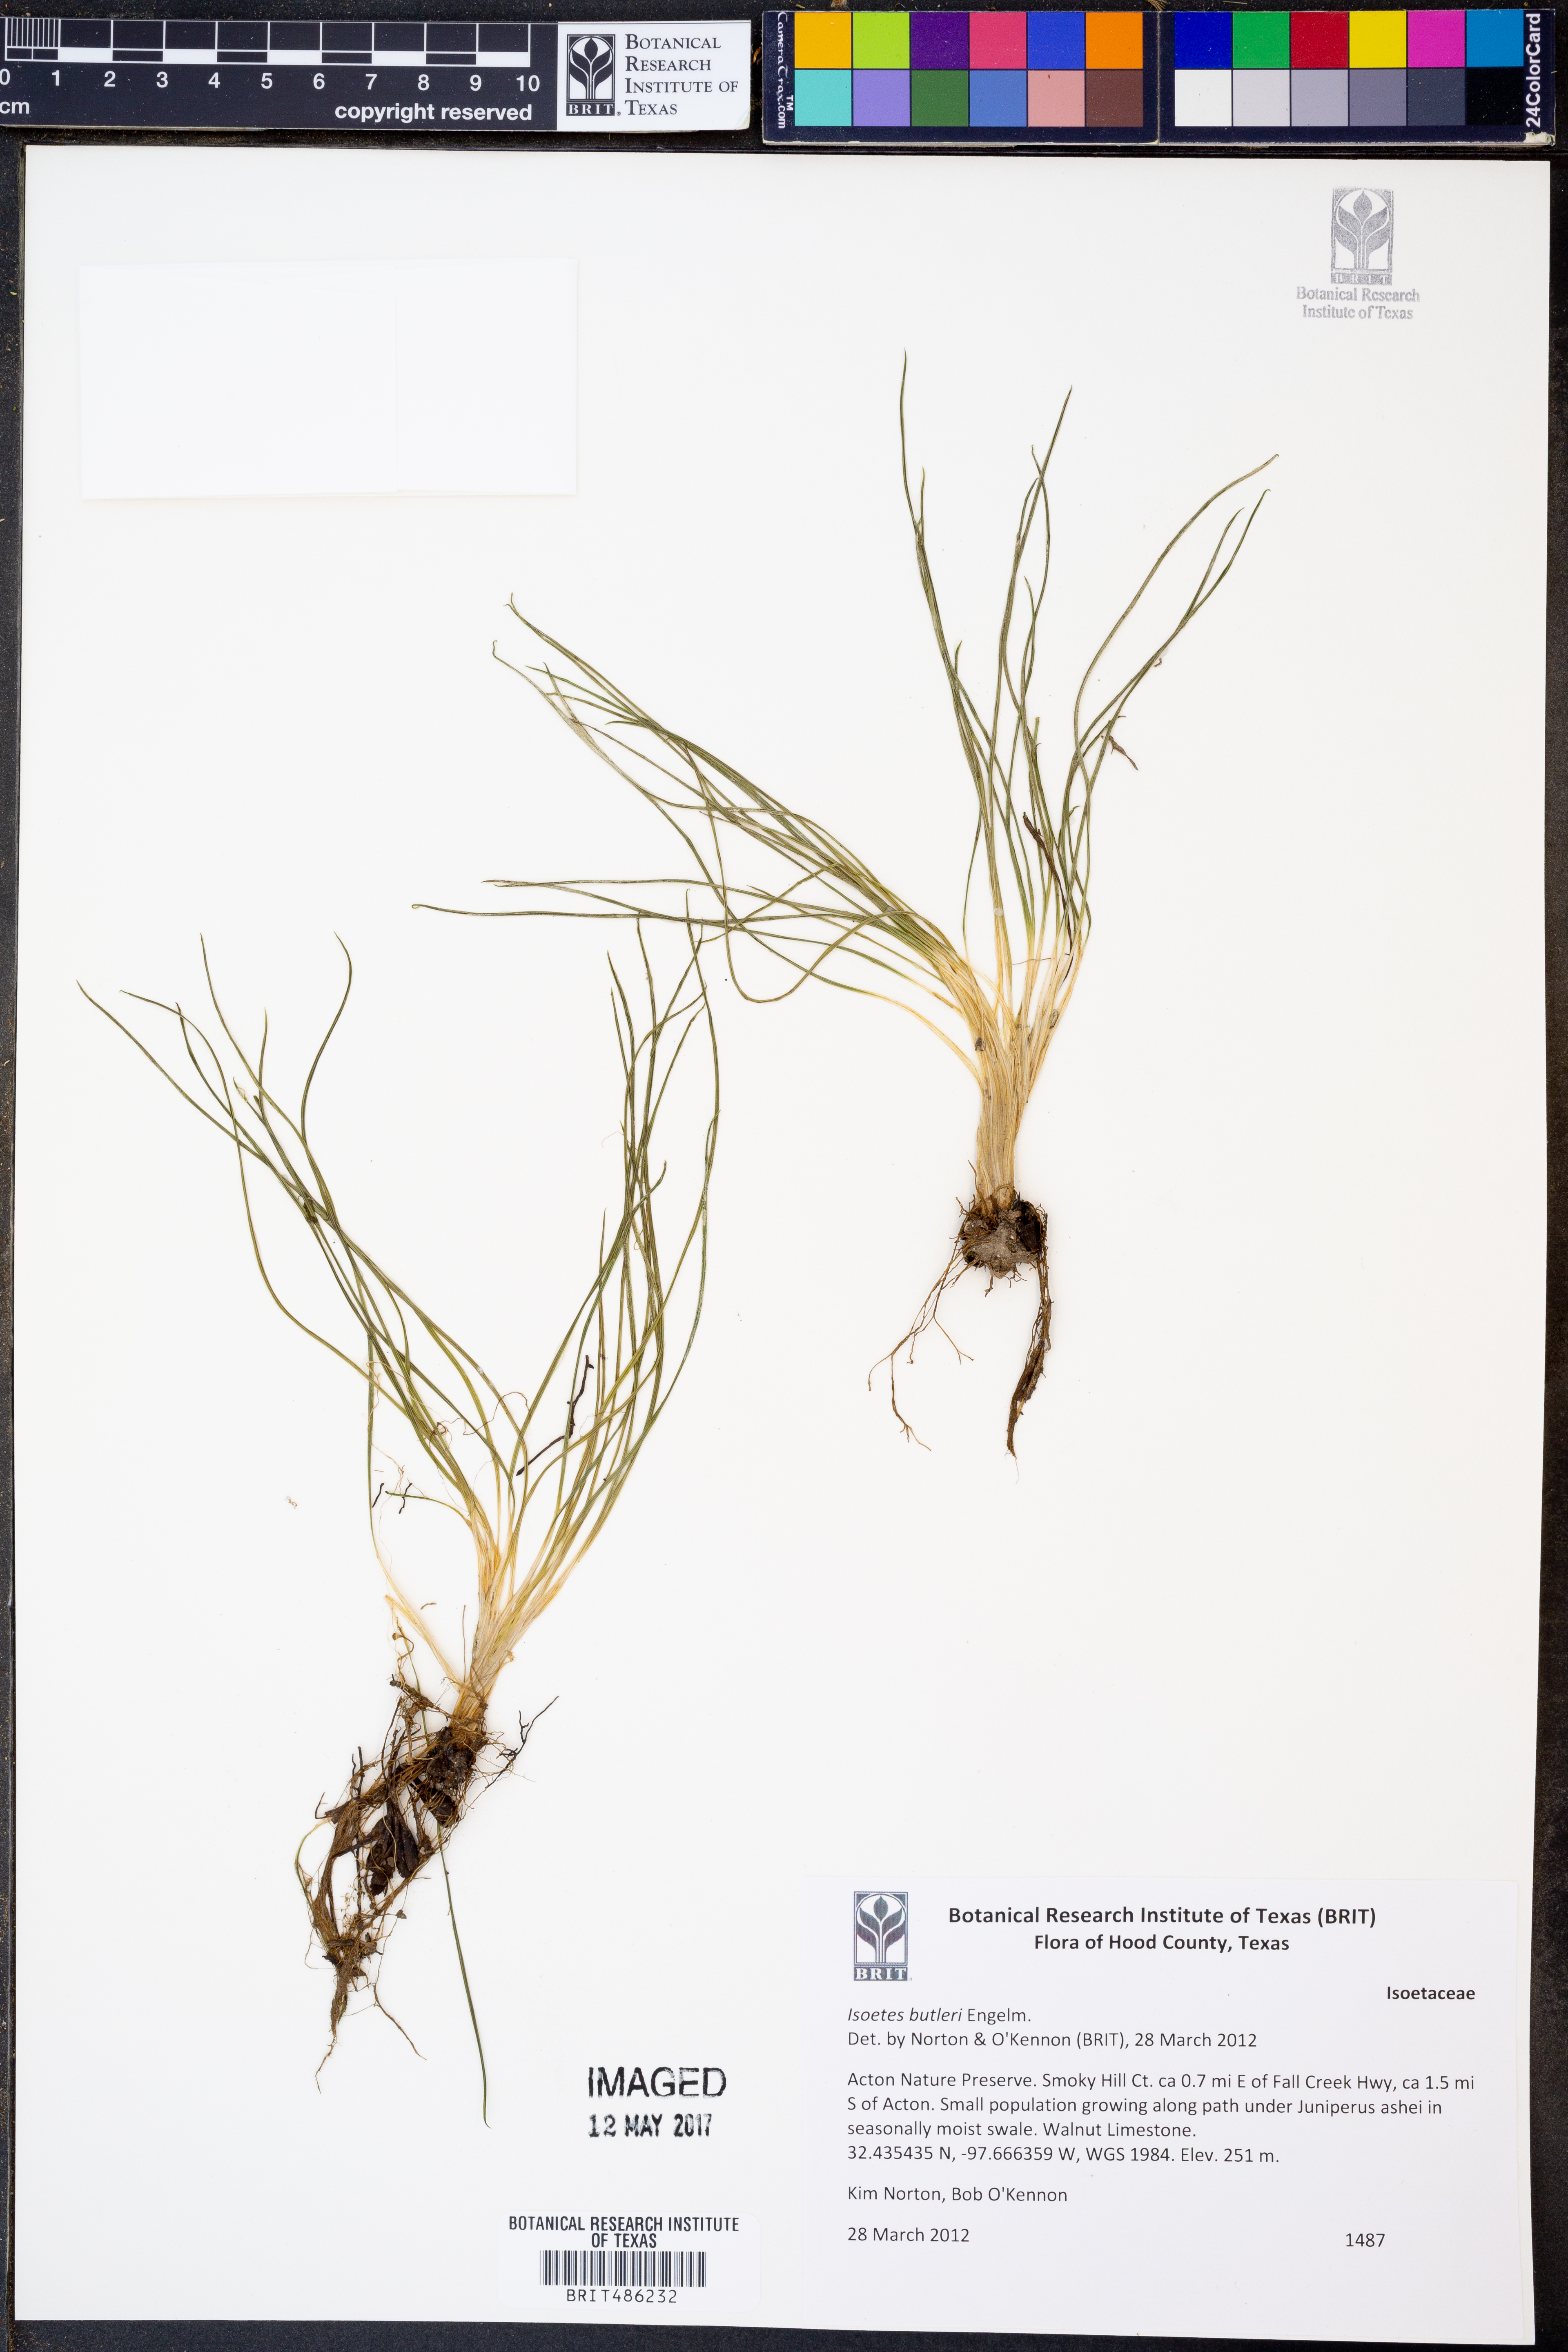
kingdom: Plantae
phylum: Tracheophyta
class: Lycopodiopsida
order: Isoetales
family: Isoetaceae
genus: Isoetes
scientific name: Isoetes butleri
